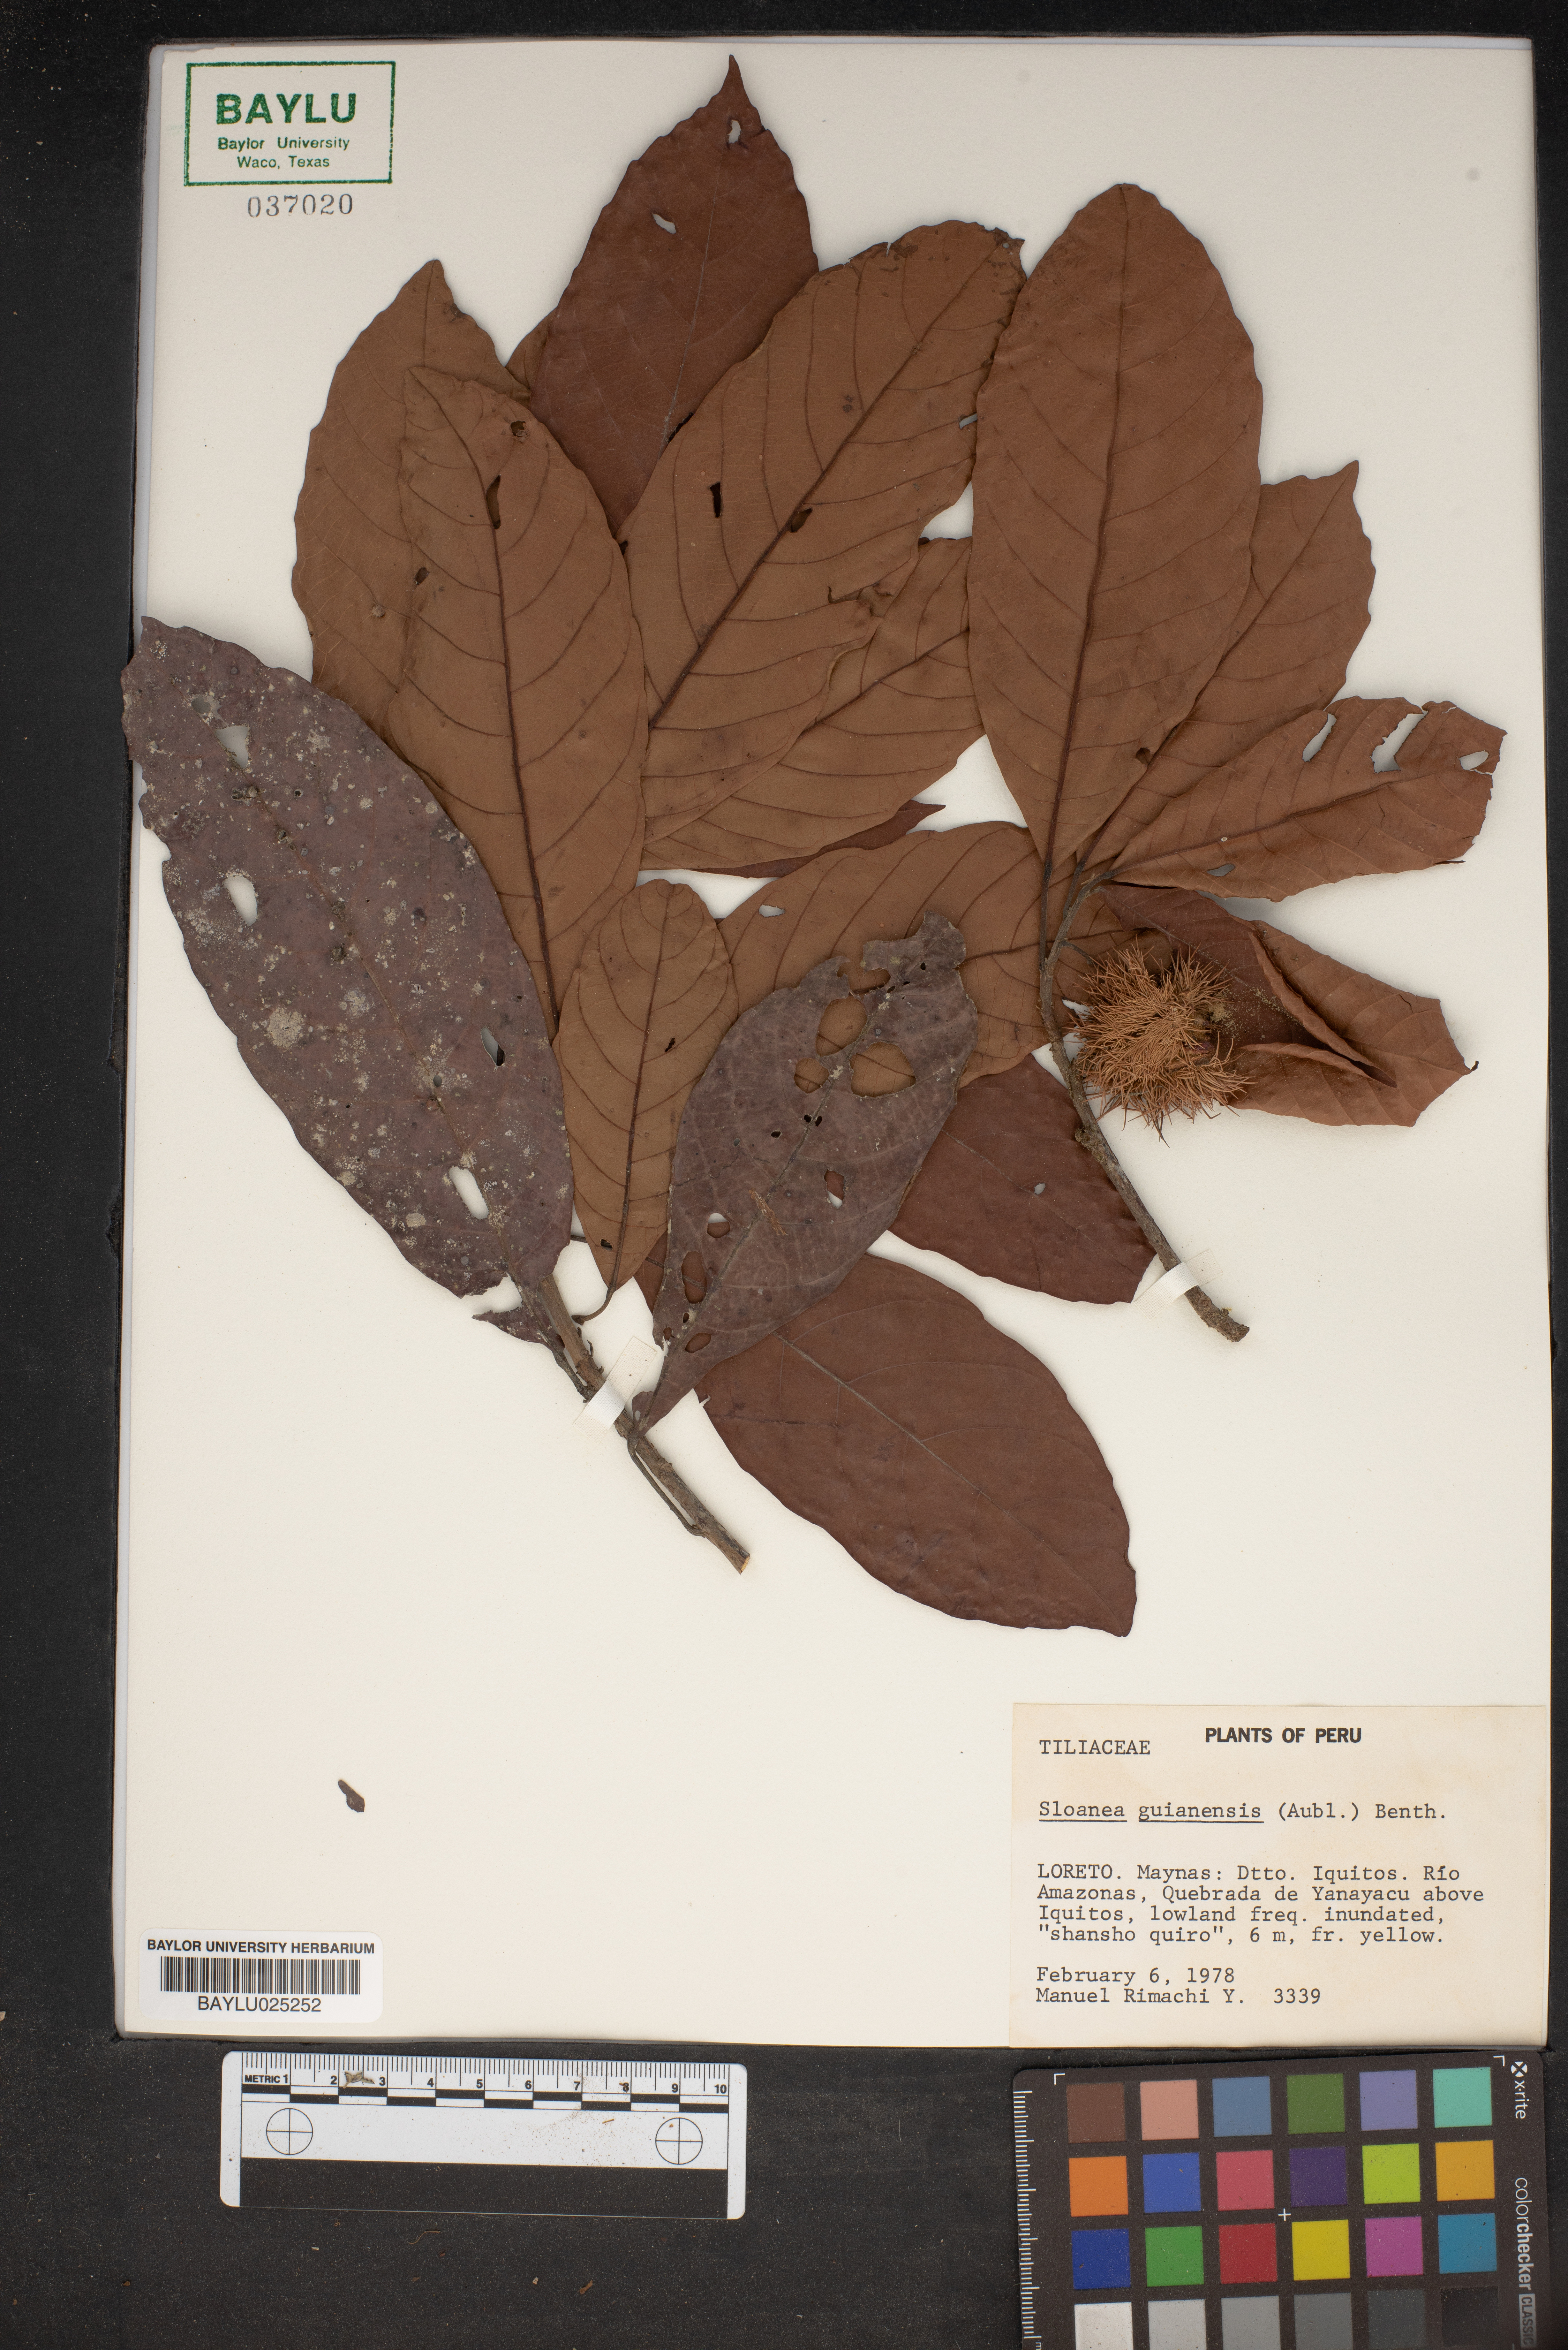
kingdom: Plantae
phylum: Tracheophyta
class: Magnoliopsida
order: Oxalidales
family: Elaeocarpaceae
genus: Sloanea
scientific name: Sloanea guianensis
